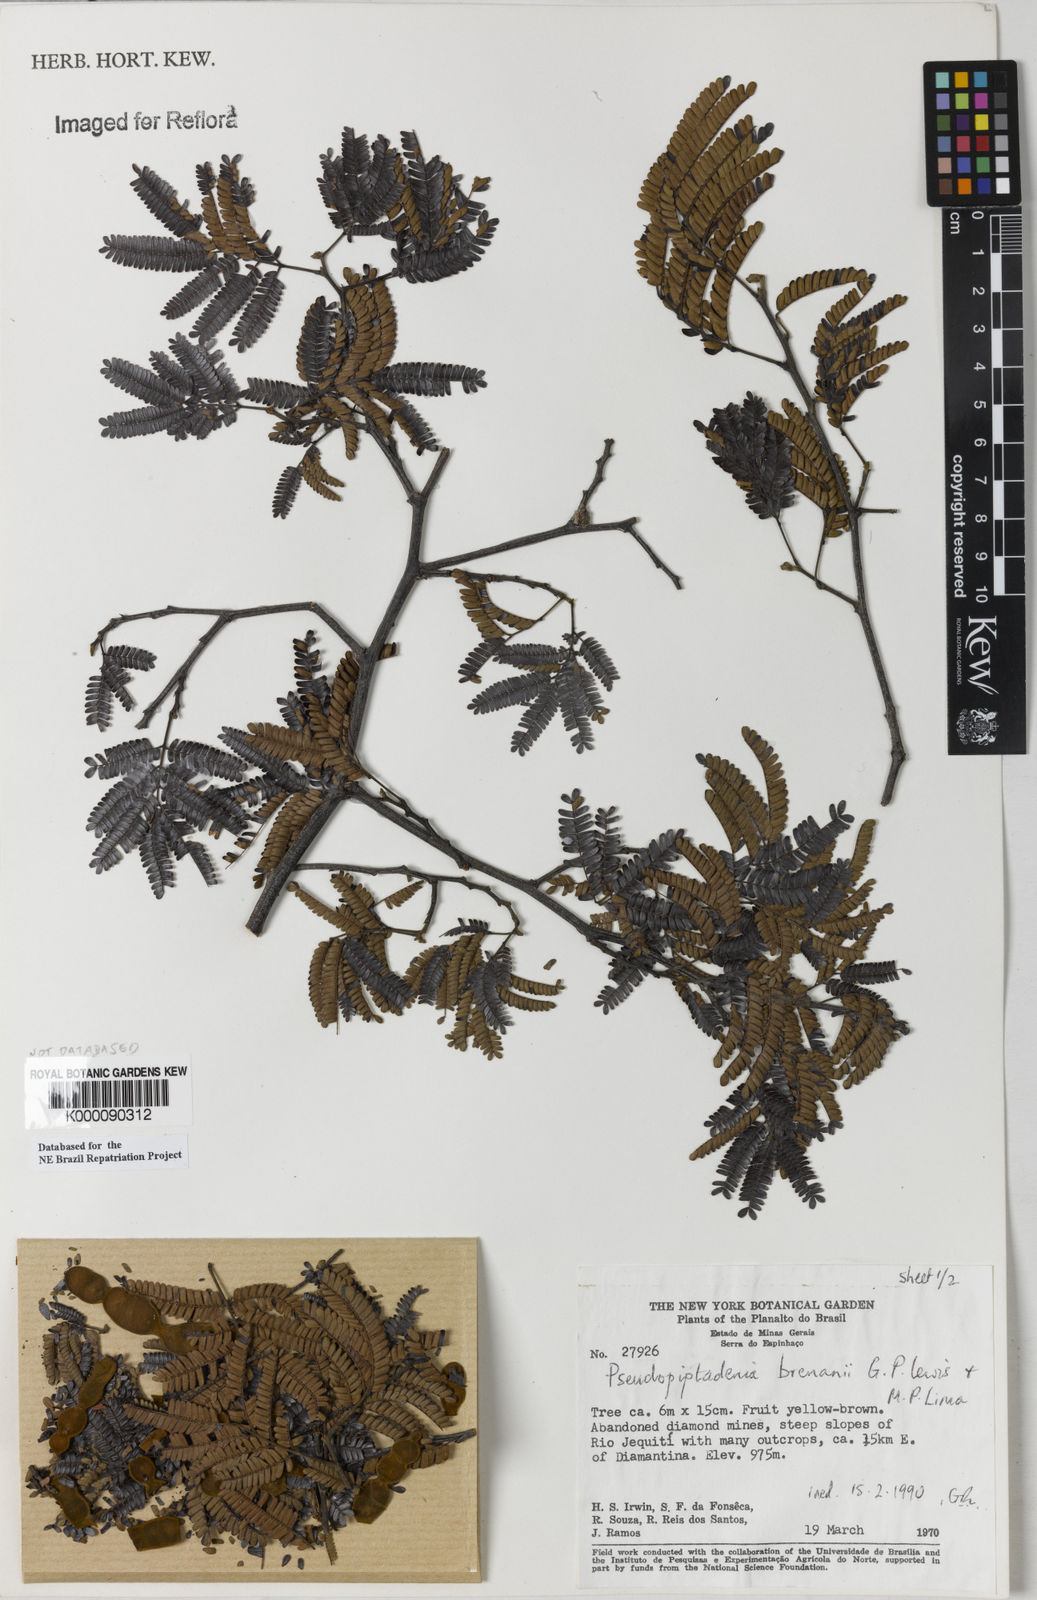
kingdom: Plantae
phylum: Tracheophyta
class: Magnoliopsida
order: Fabales
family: Fabaceae
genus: Pseudopiptadenia
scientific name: Pseudopiptadenia brenanii
